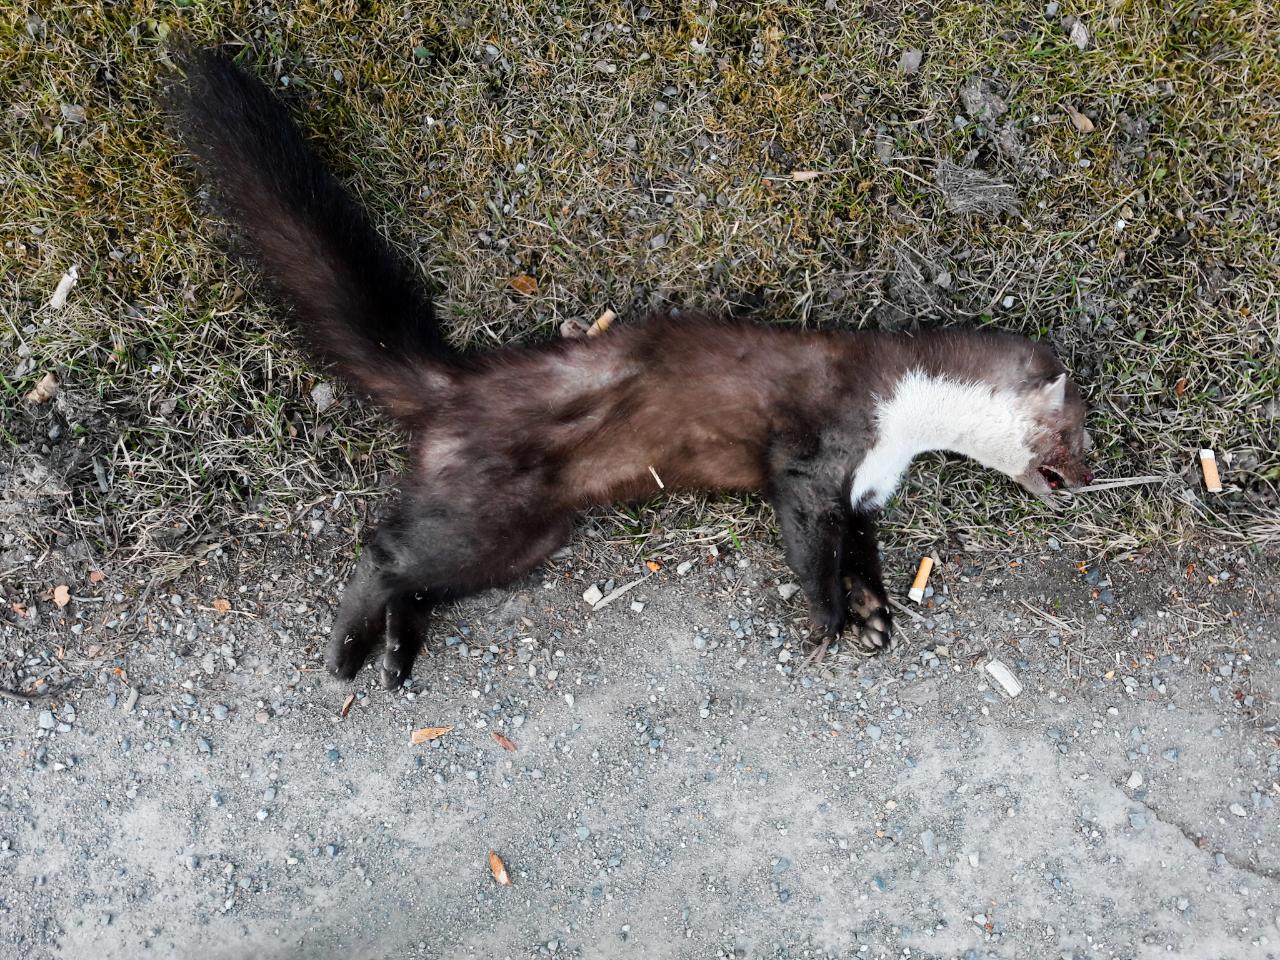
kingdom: Animalia
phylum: Chordata
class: Mammalia
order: Carnivora
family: Mustelidae
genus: Martes
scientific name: Martes foina
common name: Beech marten
